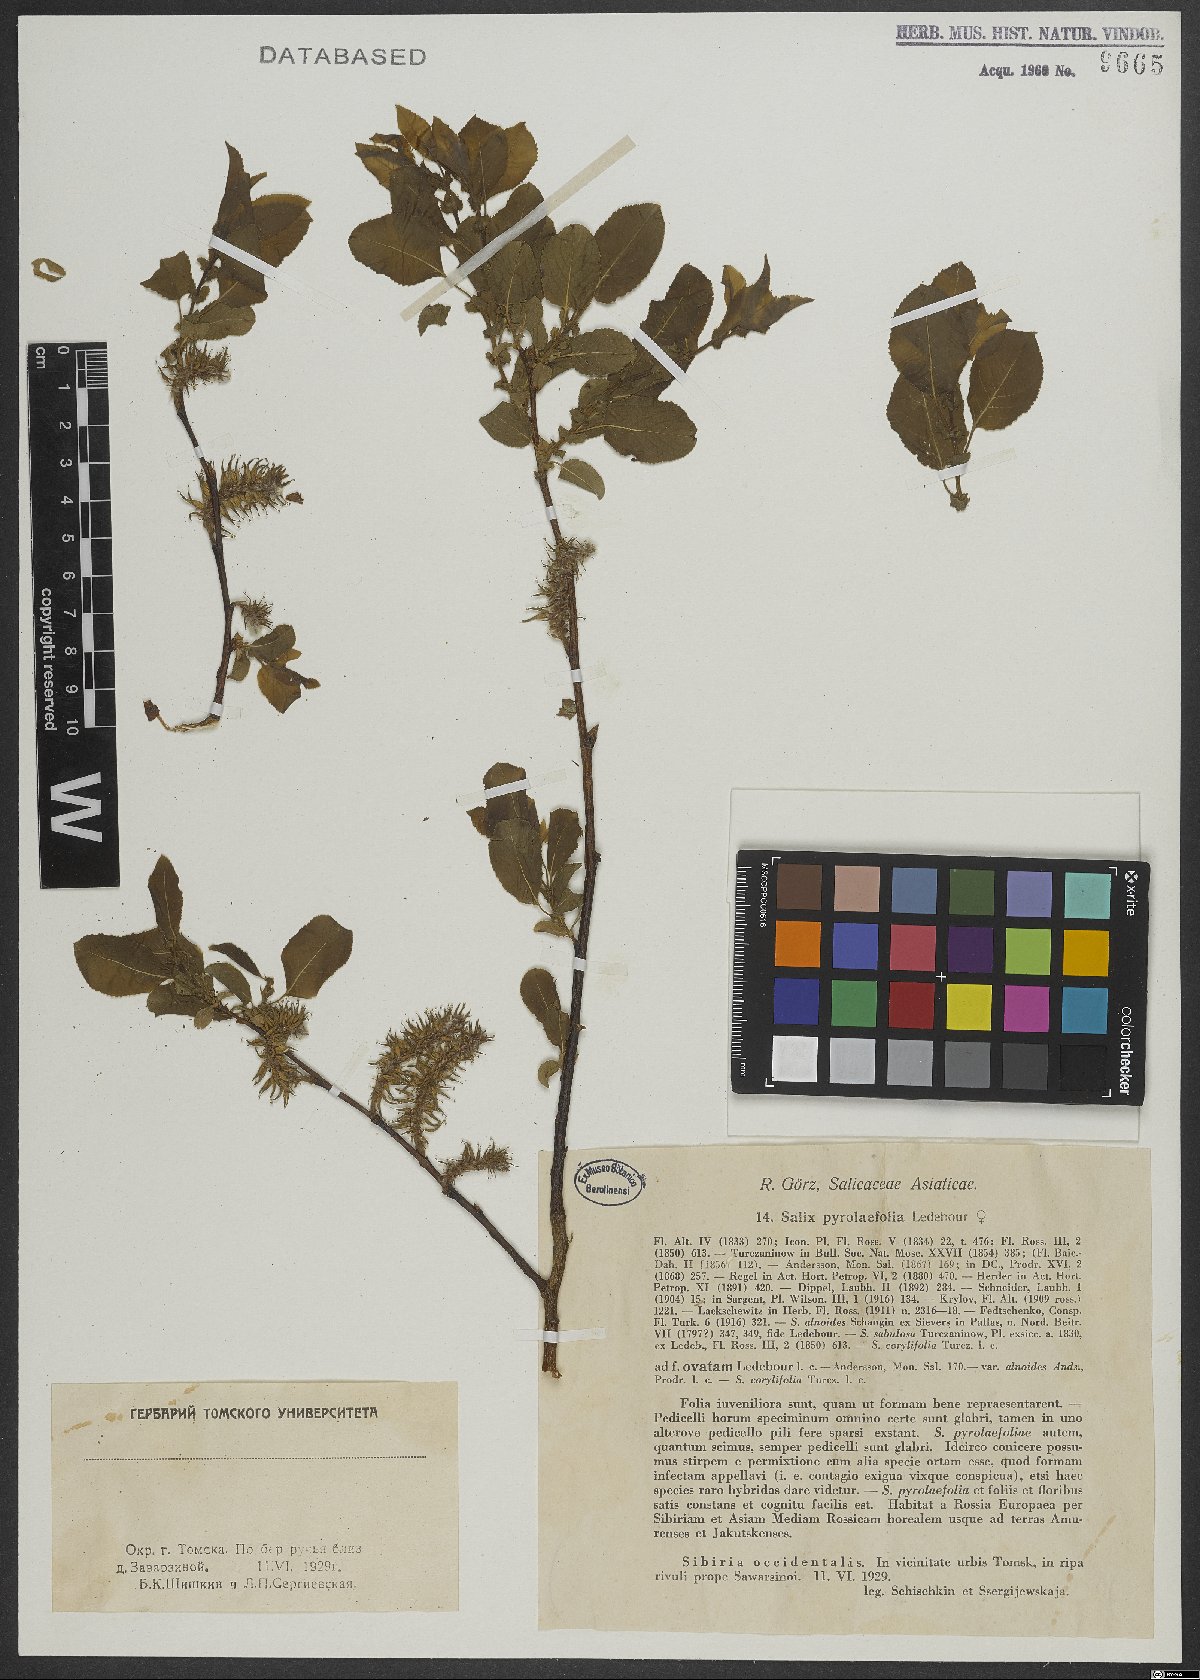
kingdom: Plantae
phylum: Tracheophyta
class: Magnoliopsida
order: Malpighiales
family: Salicaceae
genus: Salix
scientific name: Salix pyrolifolia
